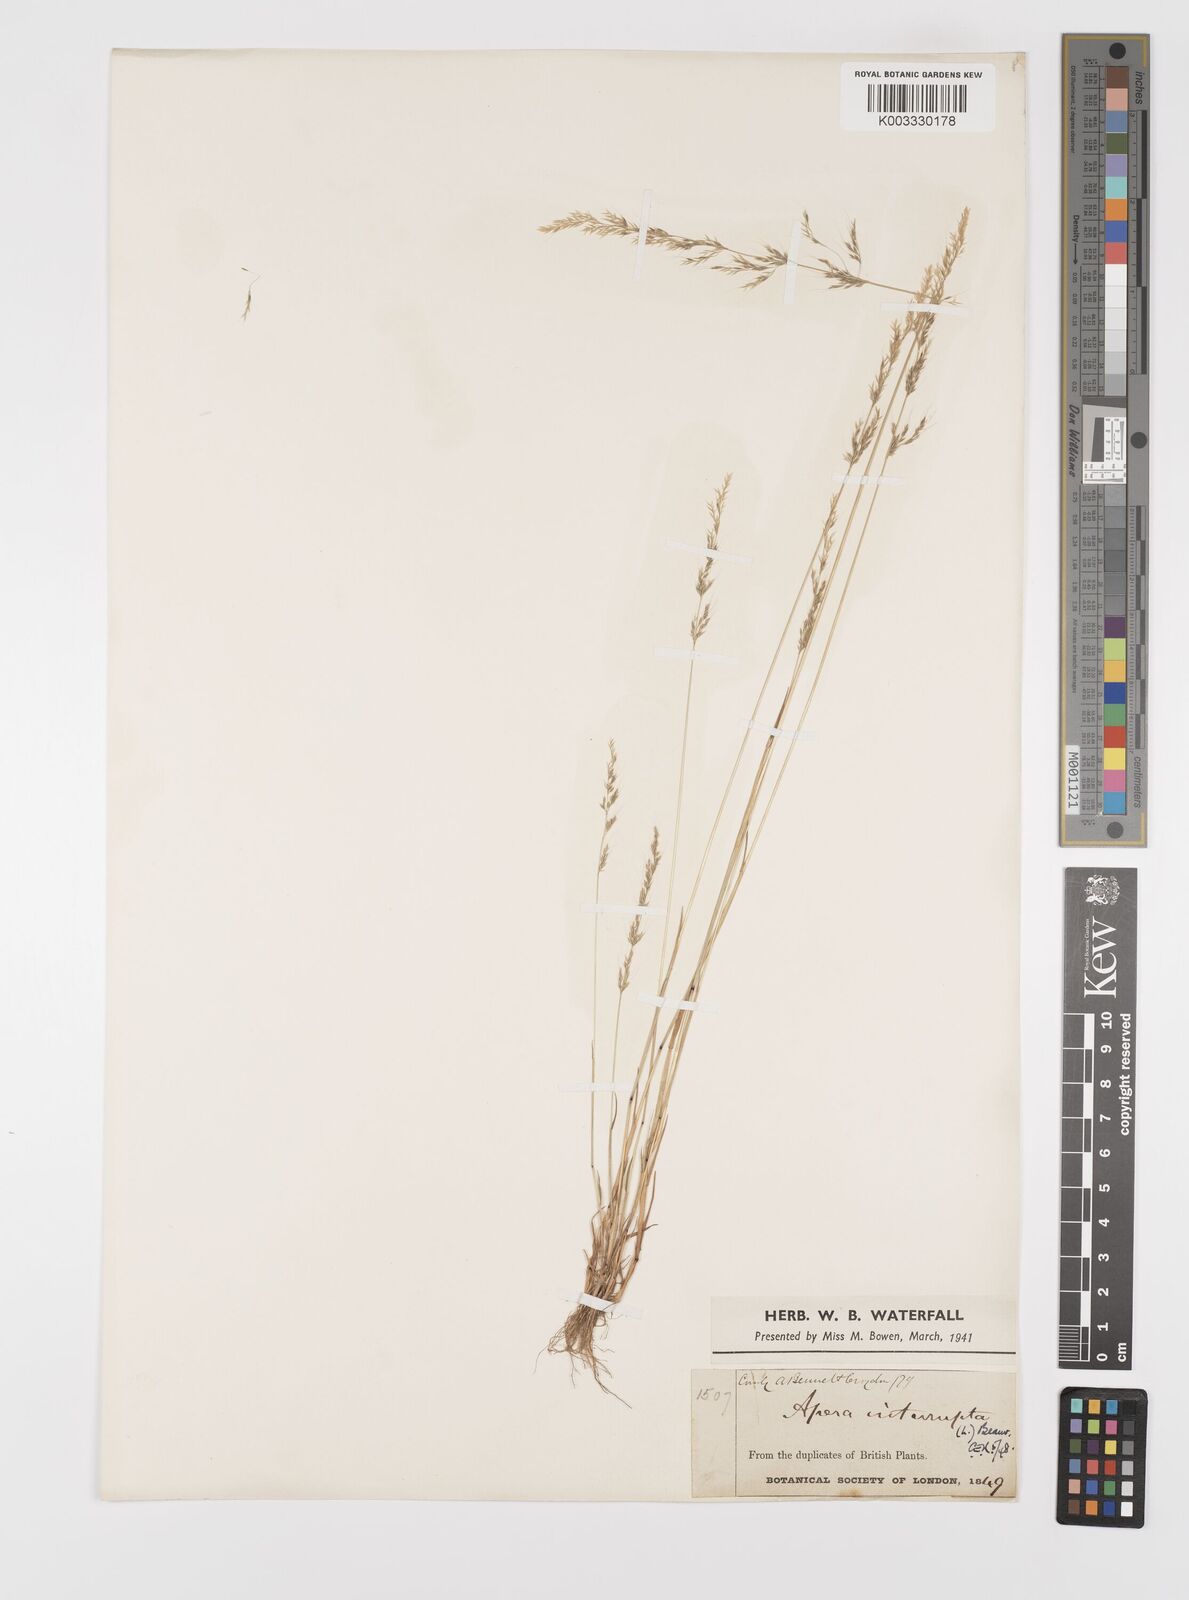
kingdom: Plantae
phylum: Tracheophyta
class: Liliopsida
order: Poales
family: Poaceae
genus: Apera
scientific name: Apera interrupta
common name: Dense silky-bent
